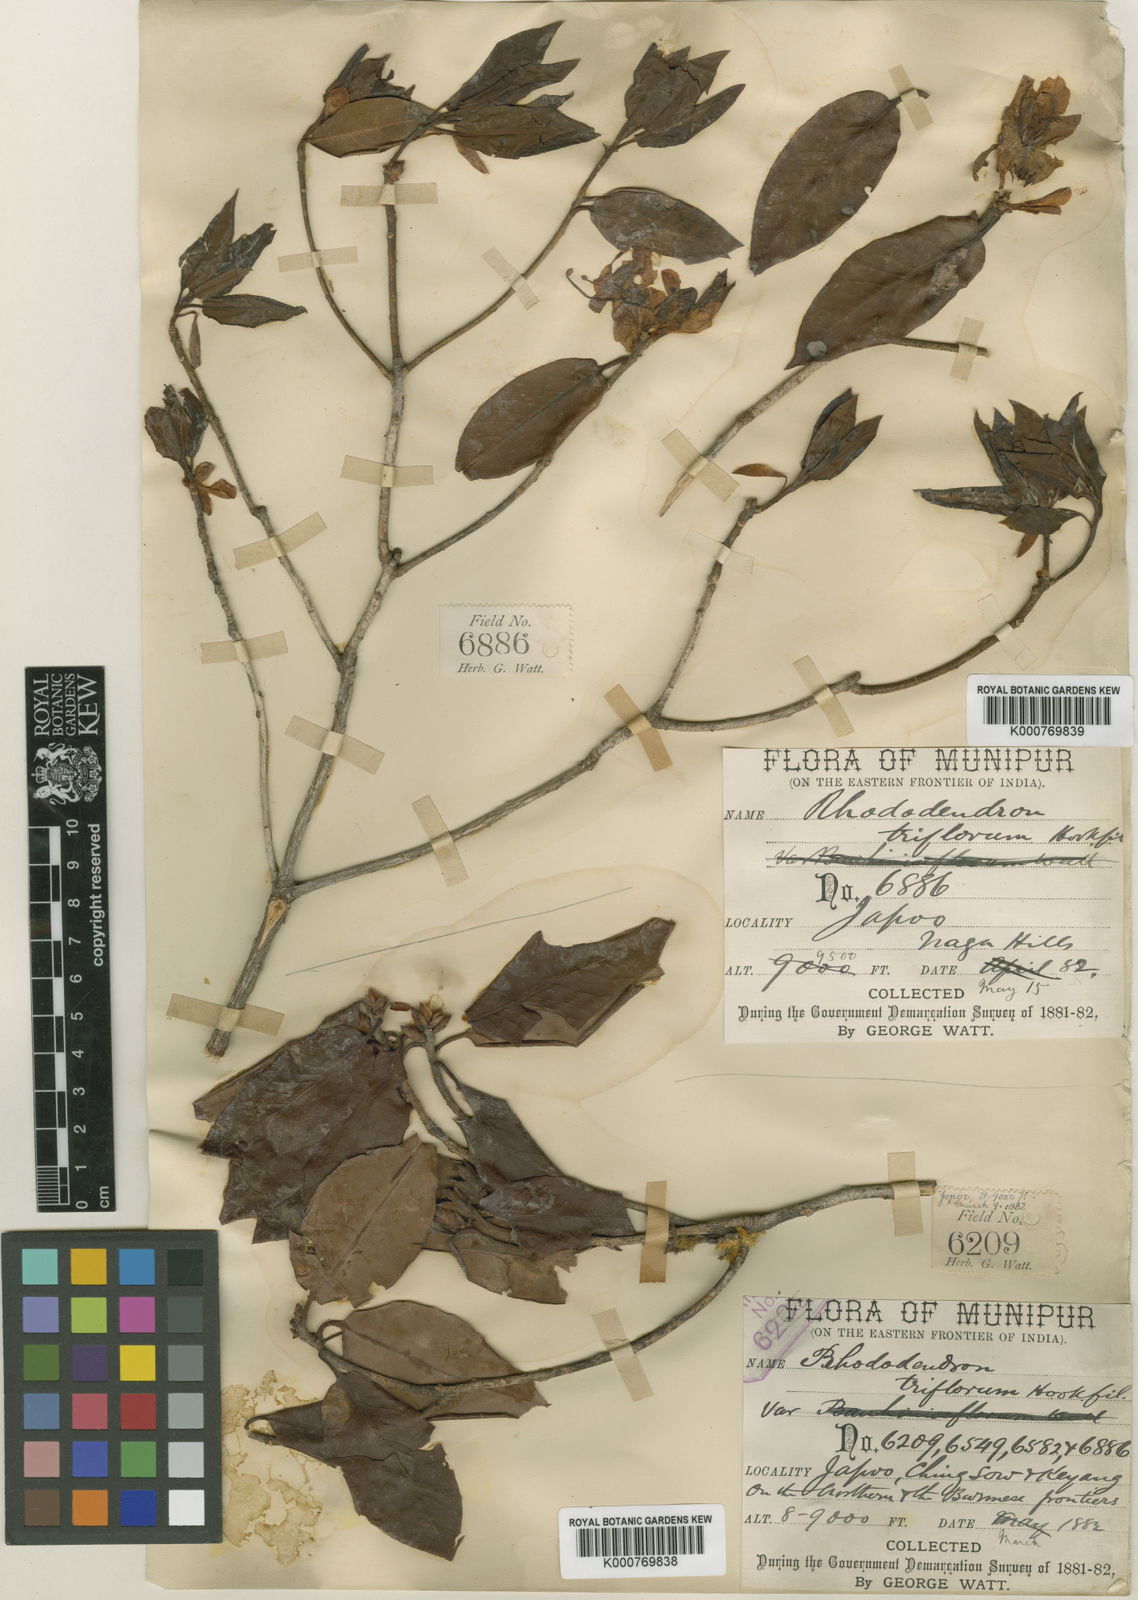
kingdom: Plantae
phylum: Tracheophyta
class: Magnoliopsida
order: Ericales
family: Ericaceae
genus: Rhododendron
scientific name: Rhododendron triflorum
